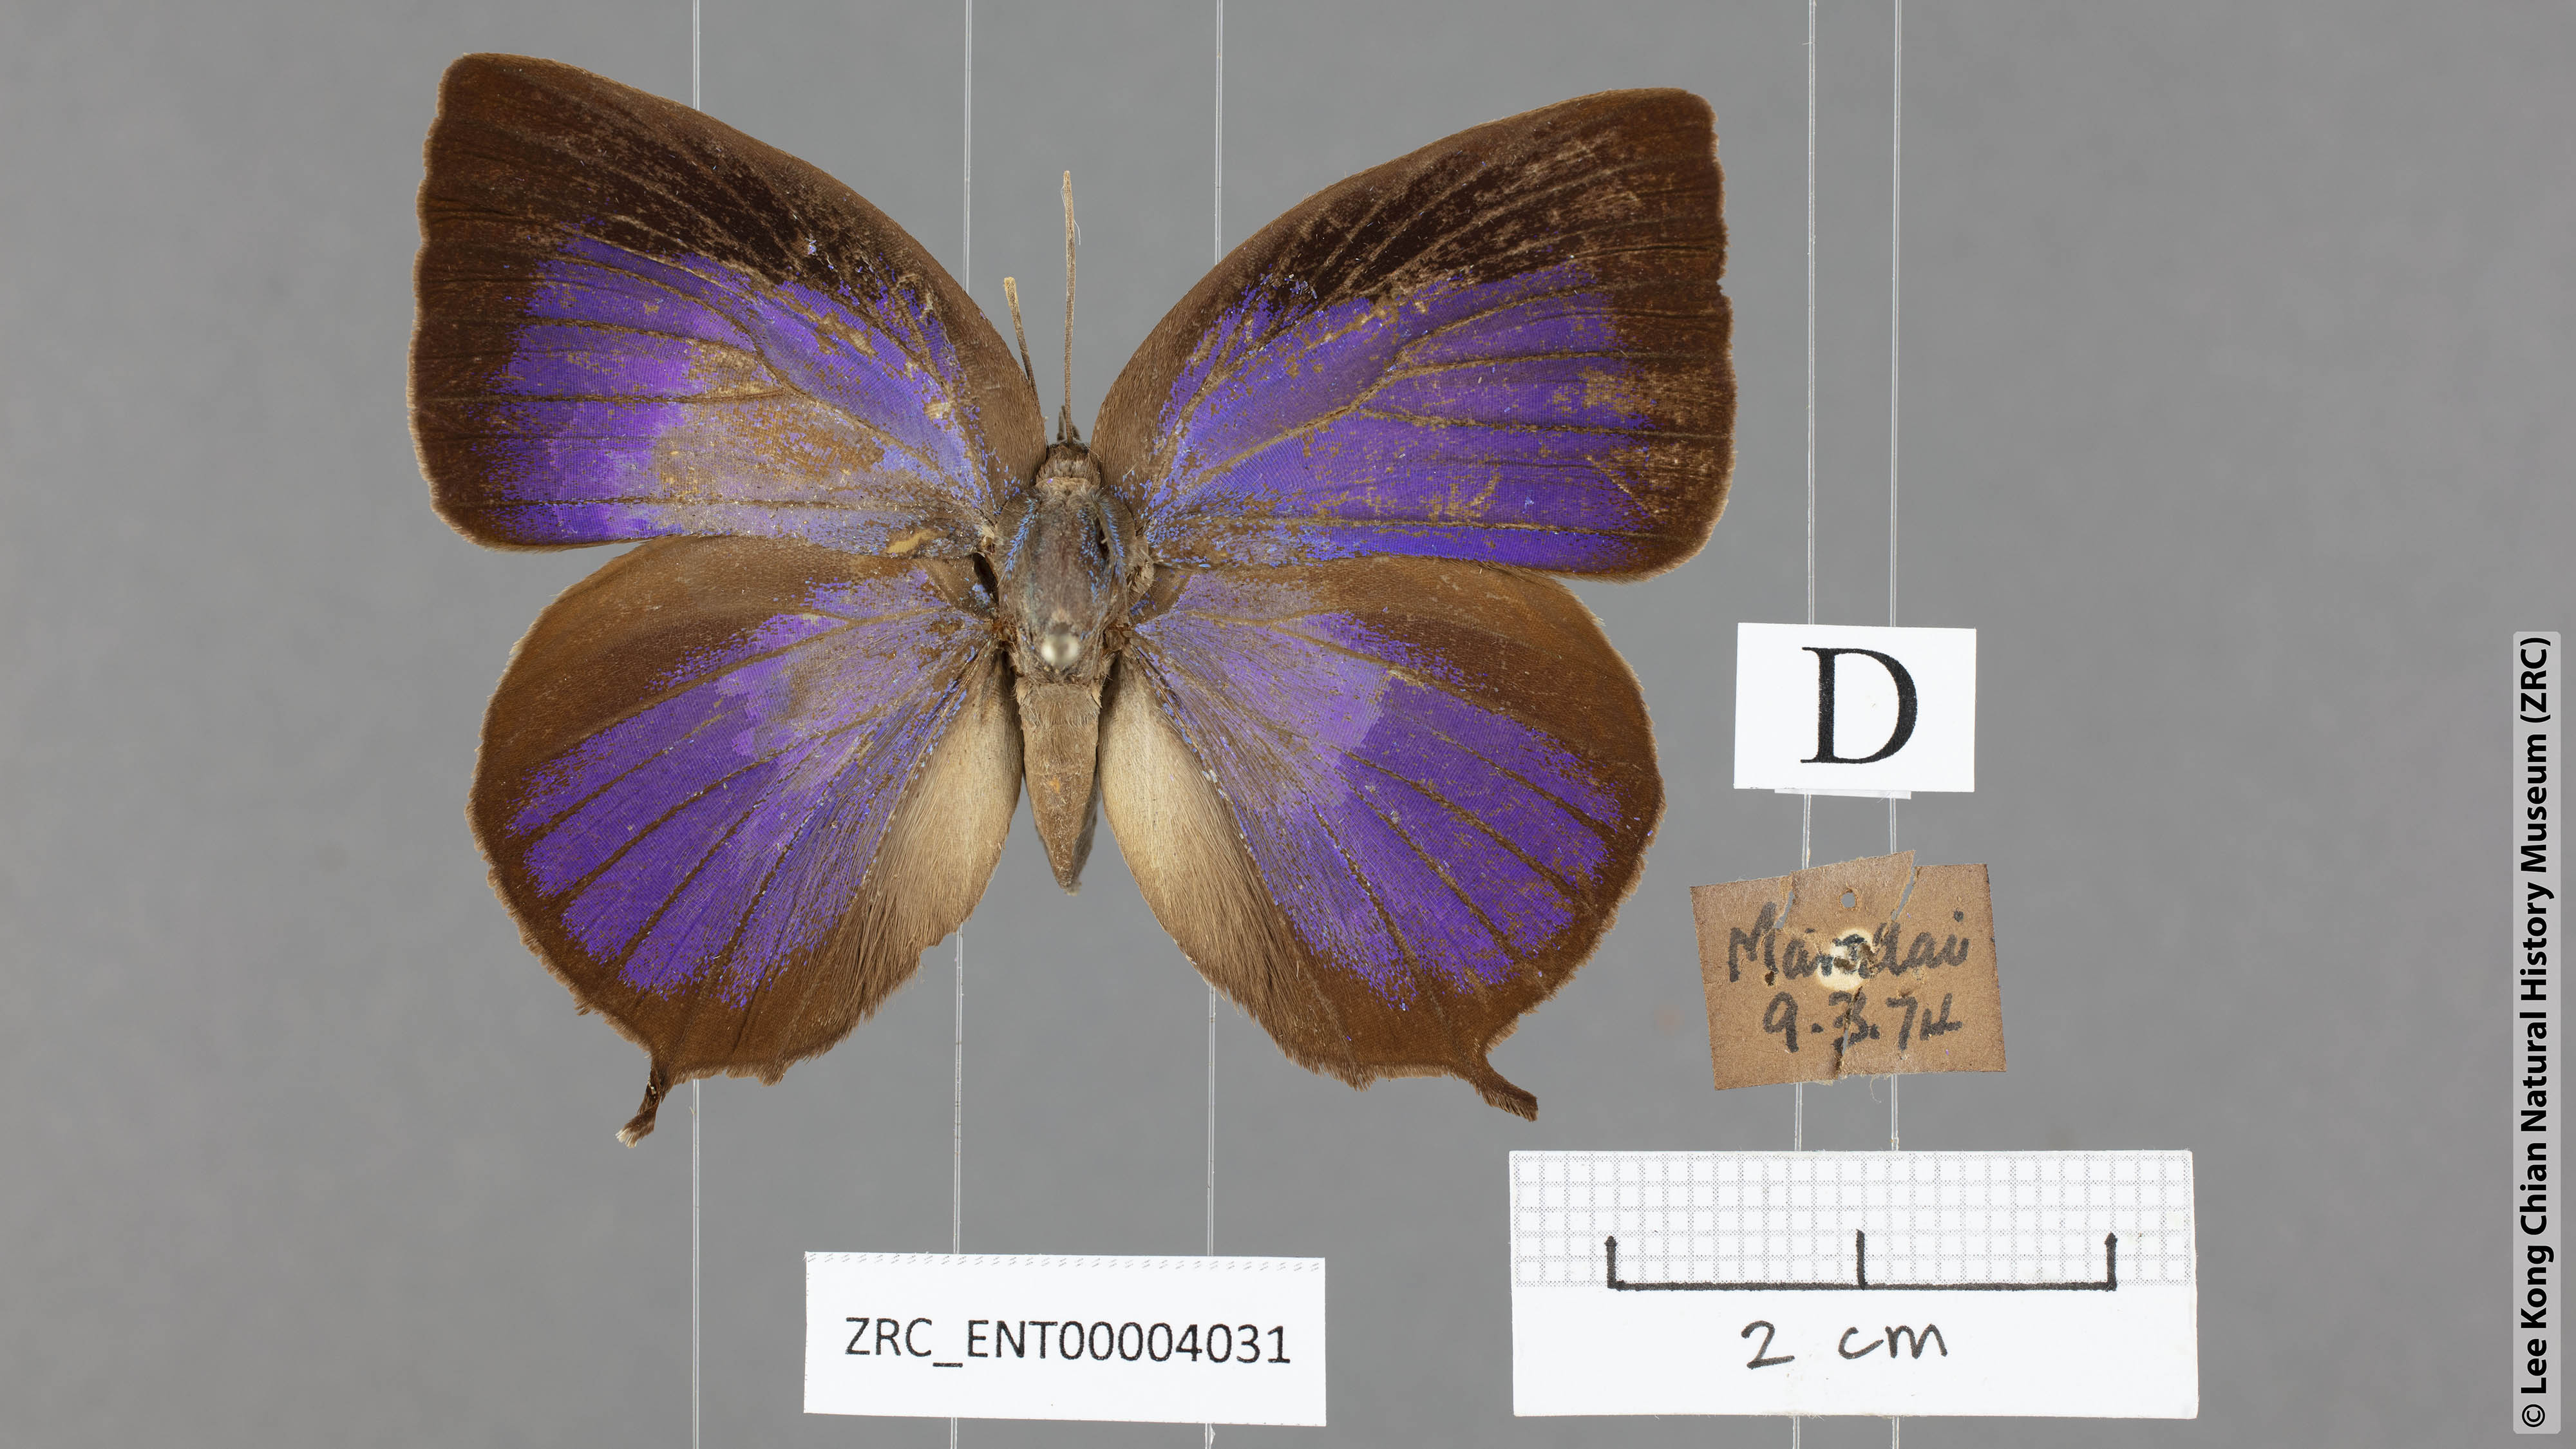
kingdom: Animalia
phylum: Arthropoda
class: Insecta
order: Lepidoptera
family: Lycaenidae
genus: Arhopala
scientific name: Arhopala centaurus
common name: Dull oak-blue
